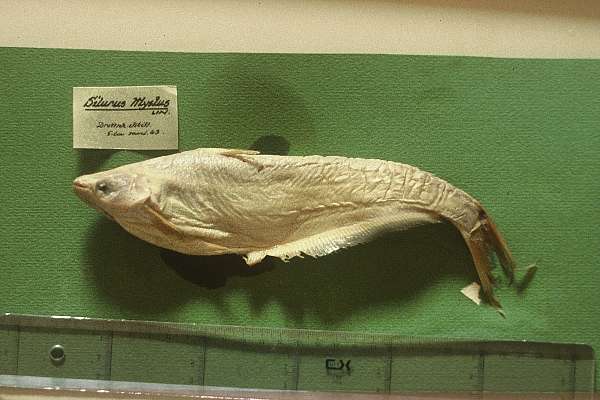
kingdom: Animalia
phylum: Chordata
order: Siluriformes
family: Schilbeidae
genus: Schilbe
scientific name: Schilbe intermedius
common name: Silver catfish
